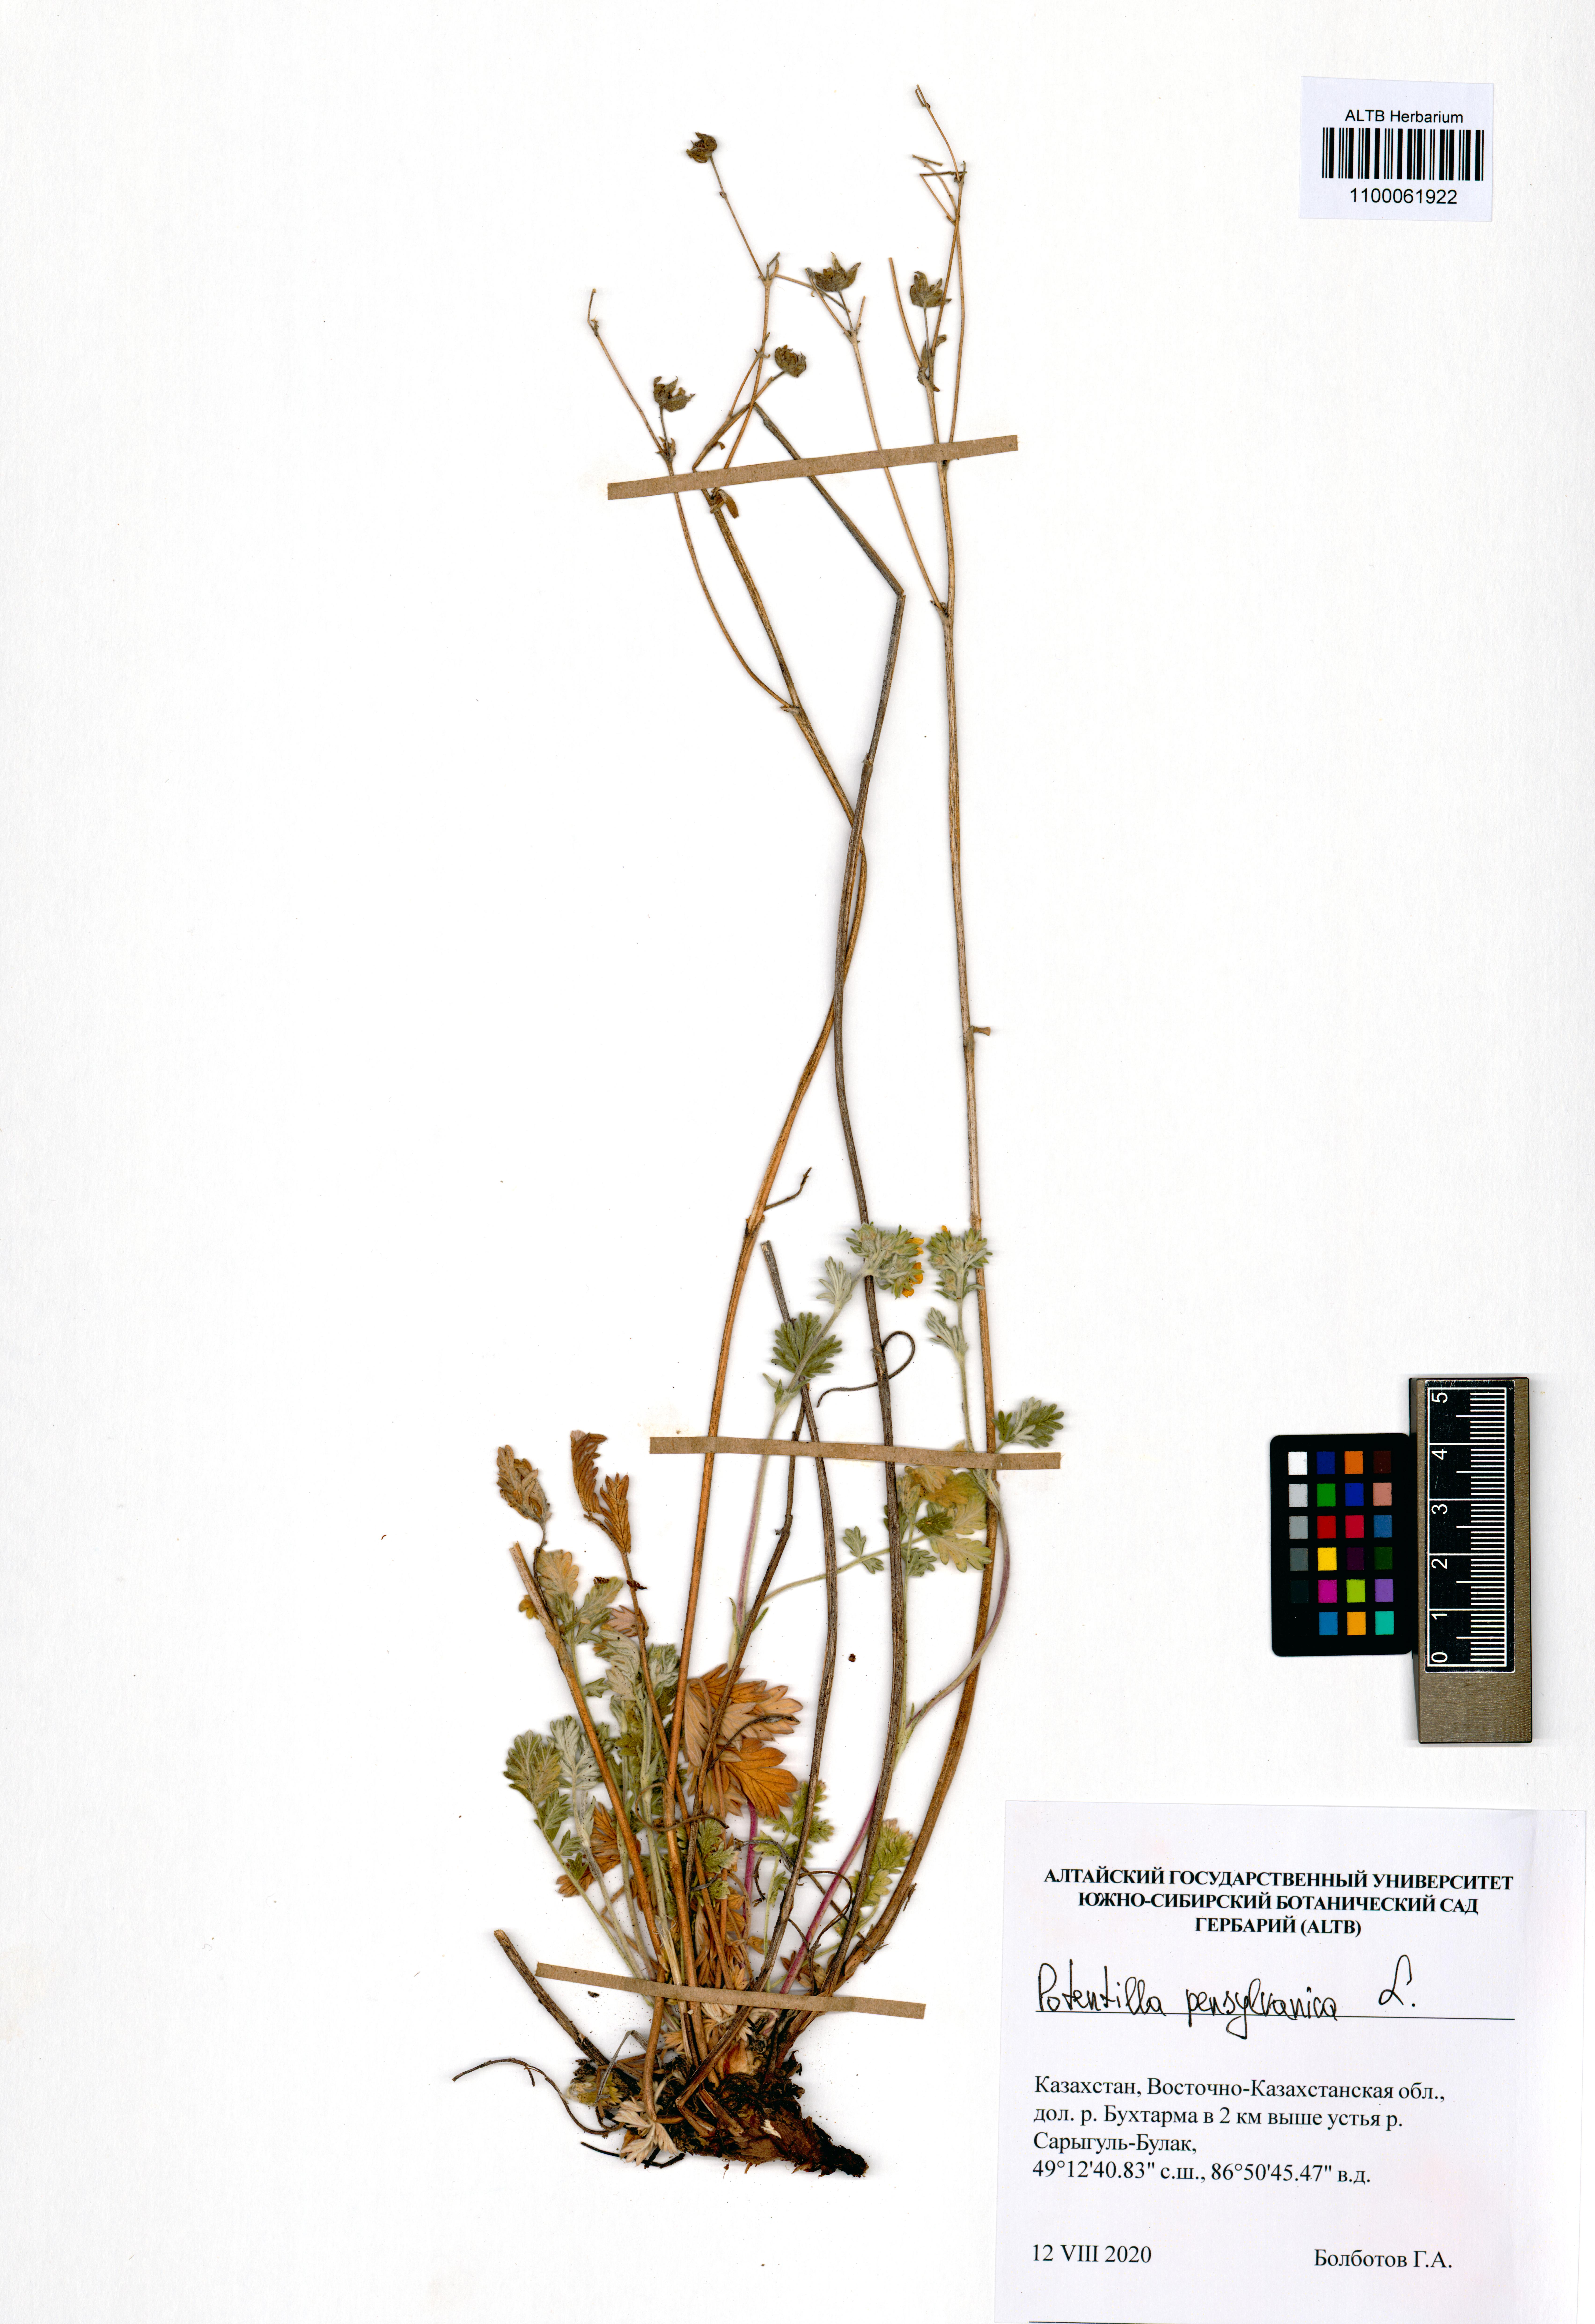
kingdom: Plantae
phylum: Tracheophyta
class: Magnoliopsida
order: Rosales
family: Rosaceae
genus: Potentilla
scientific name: Potentilla pensylvanica
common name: Pennsylvania cinquefoil
